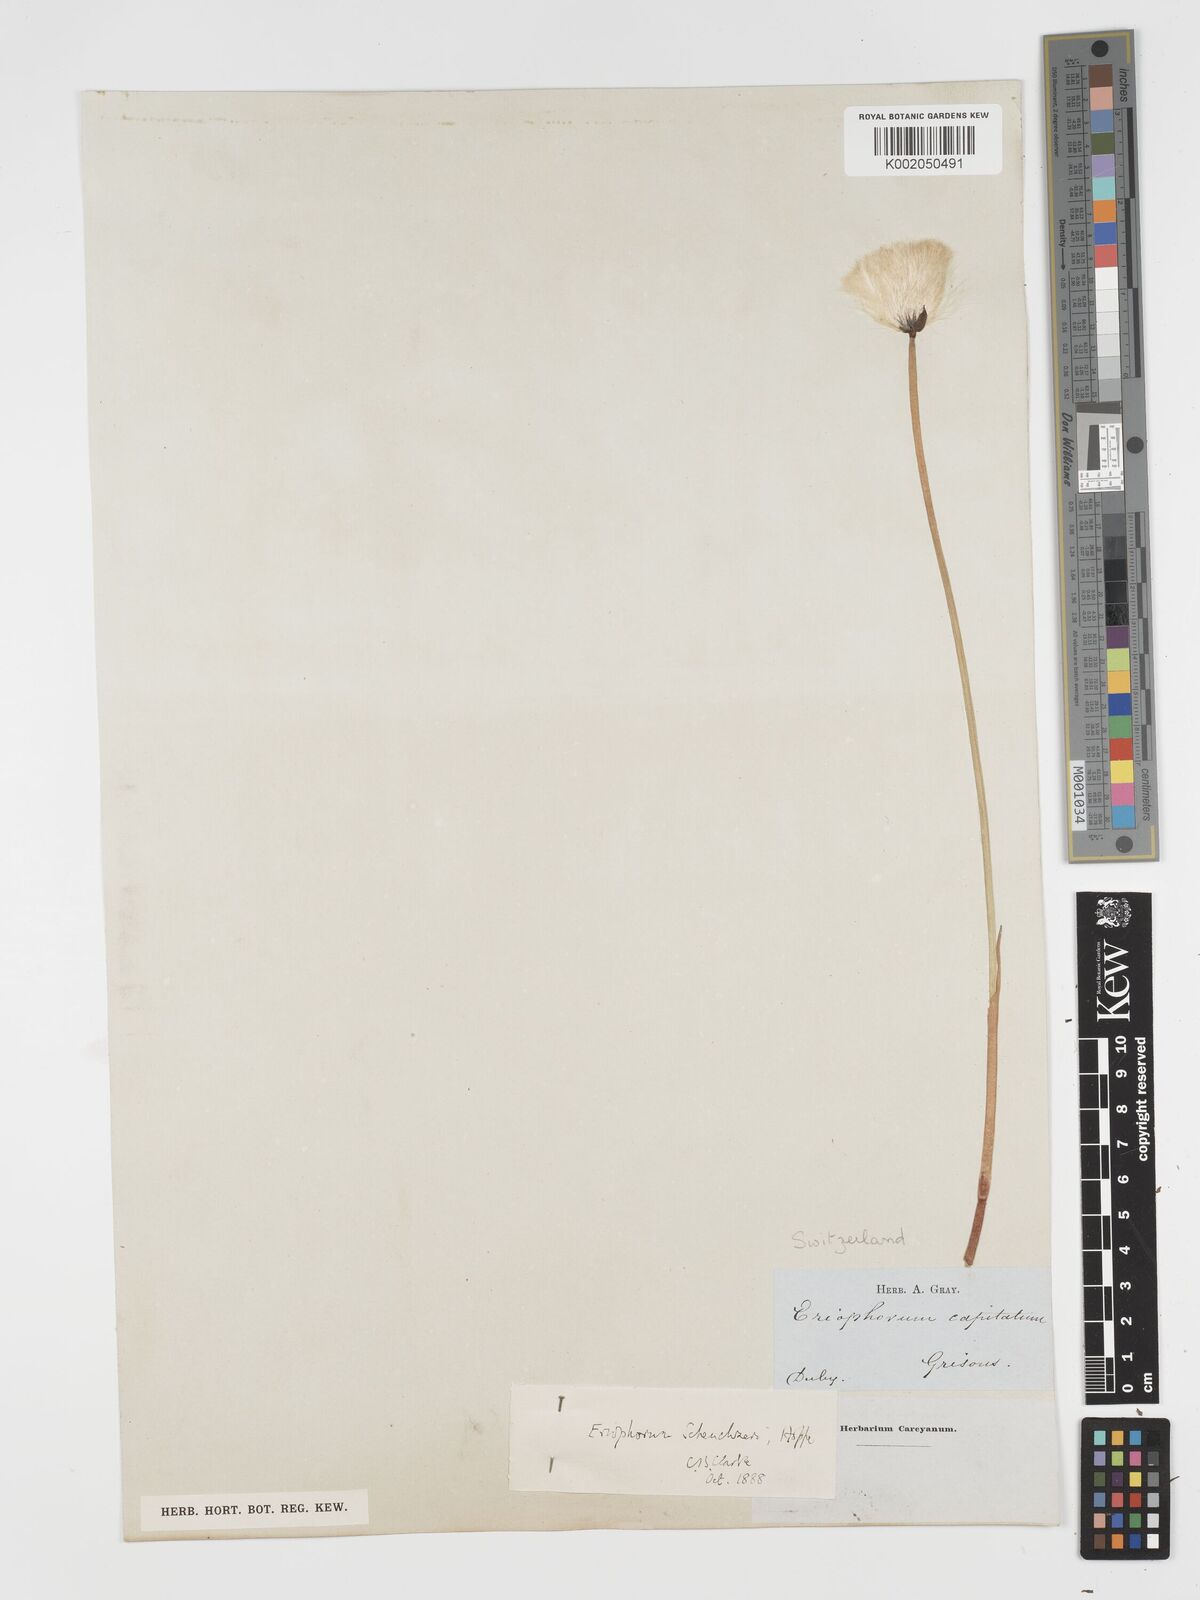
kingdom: Plantae
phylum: Tracheophyta
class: Liliopsida
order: Poales
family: Cyperaceae
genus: Eriophorum
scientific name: Eriophorum scheuchzeri
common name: Scheuchzer's cottongrass
